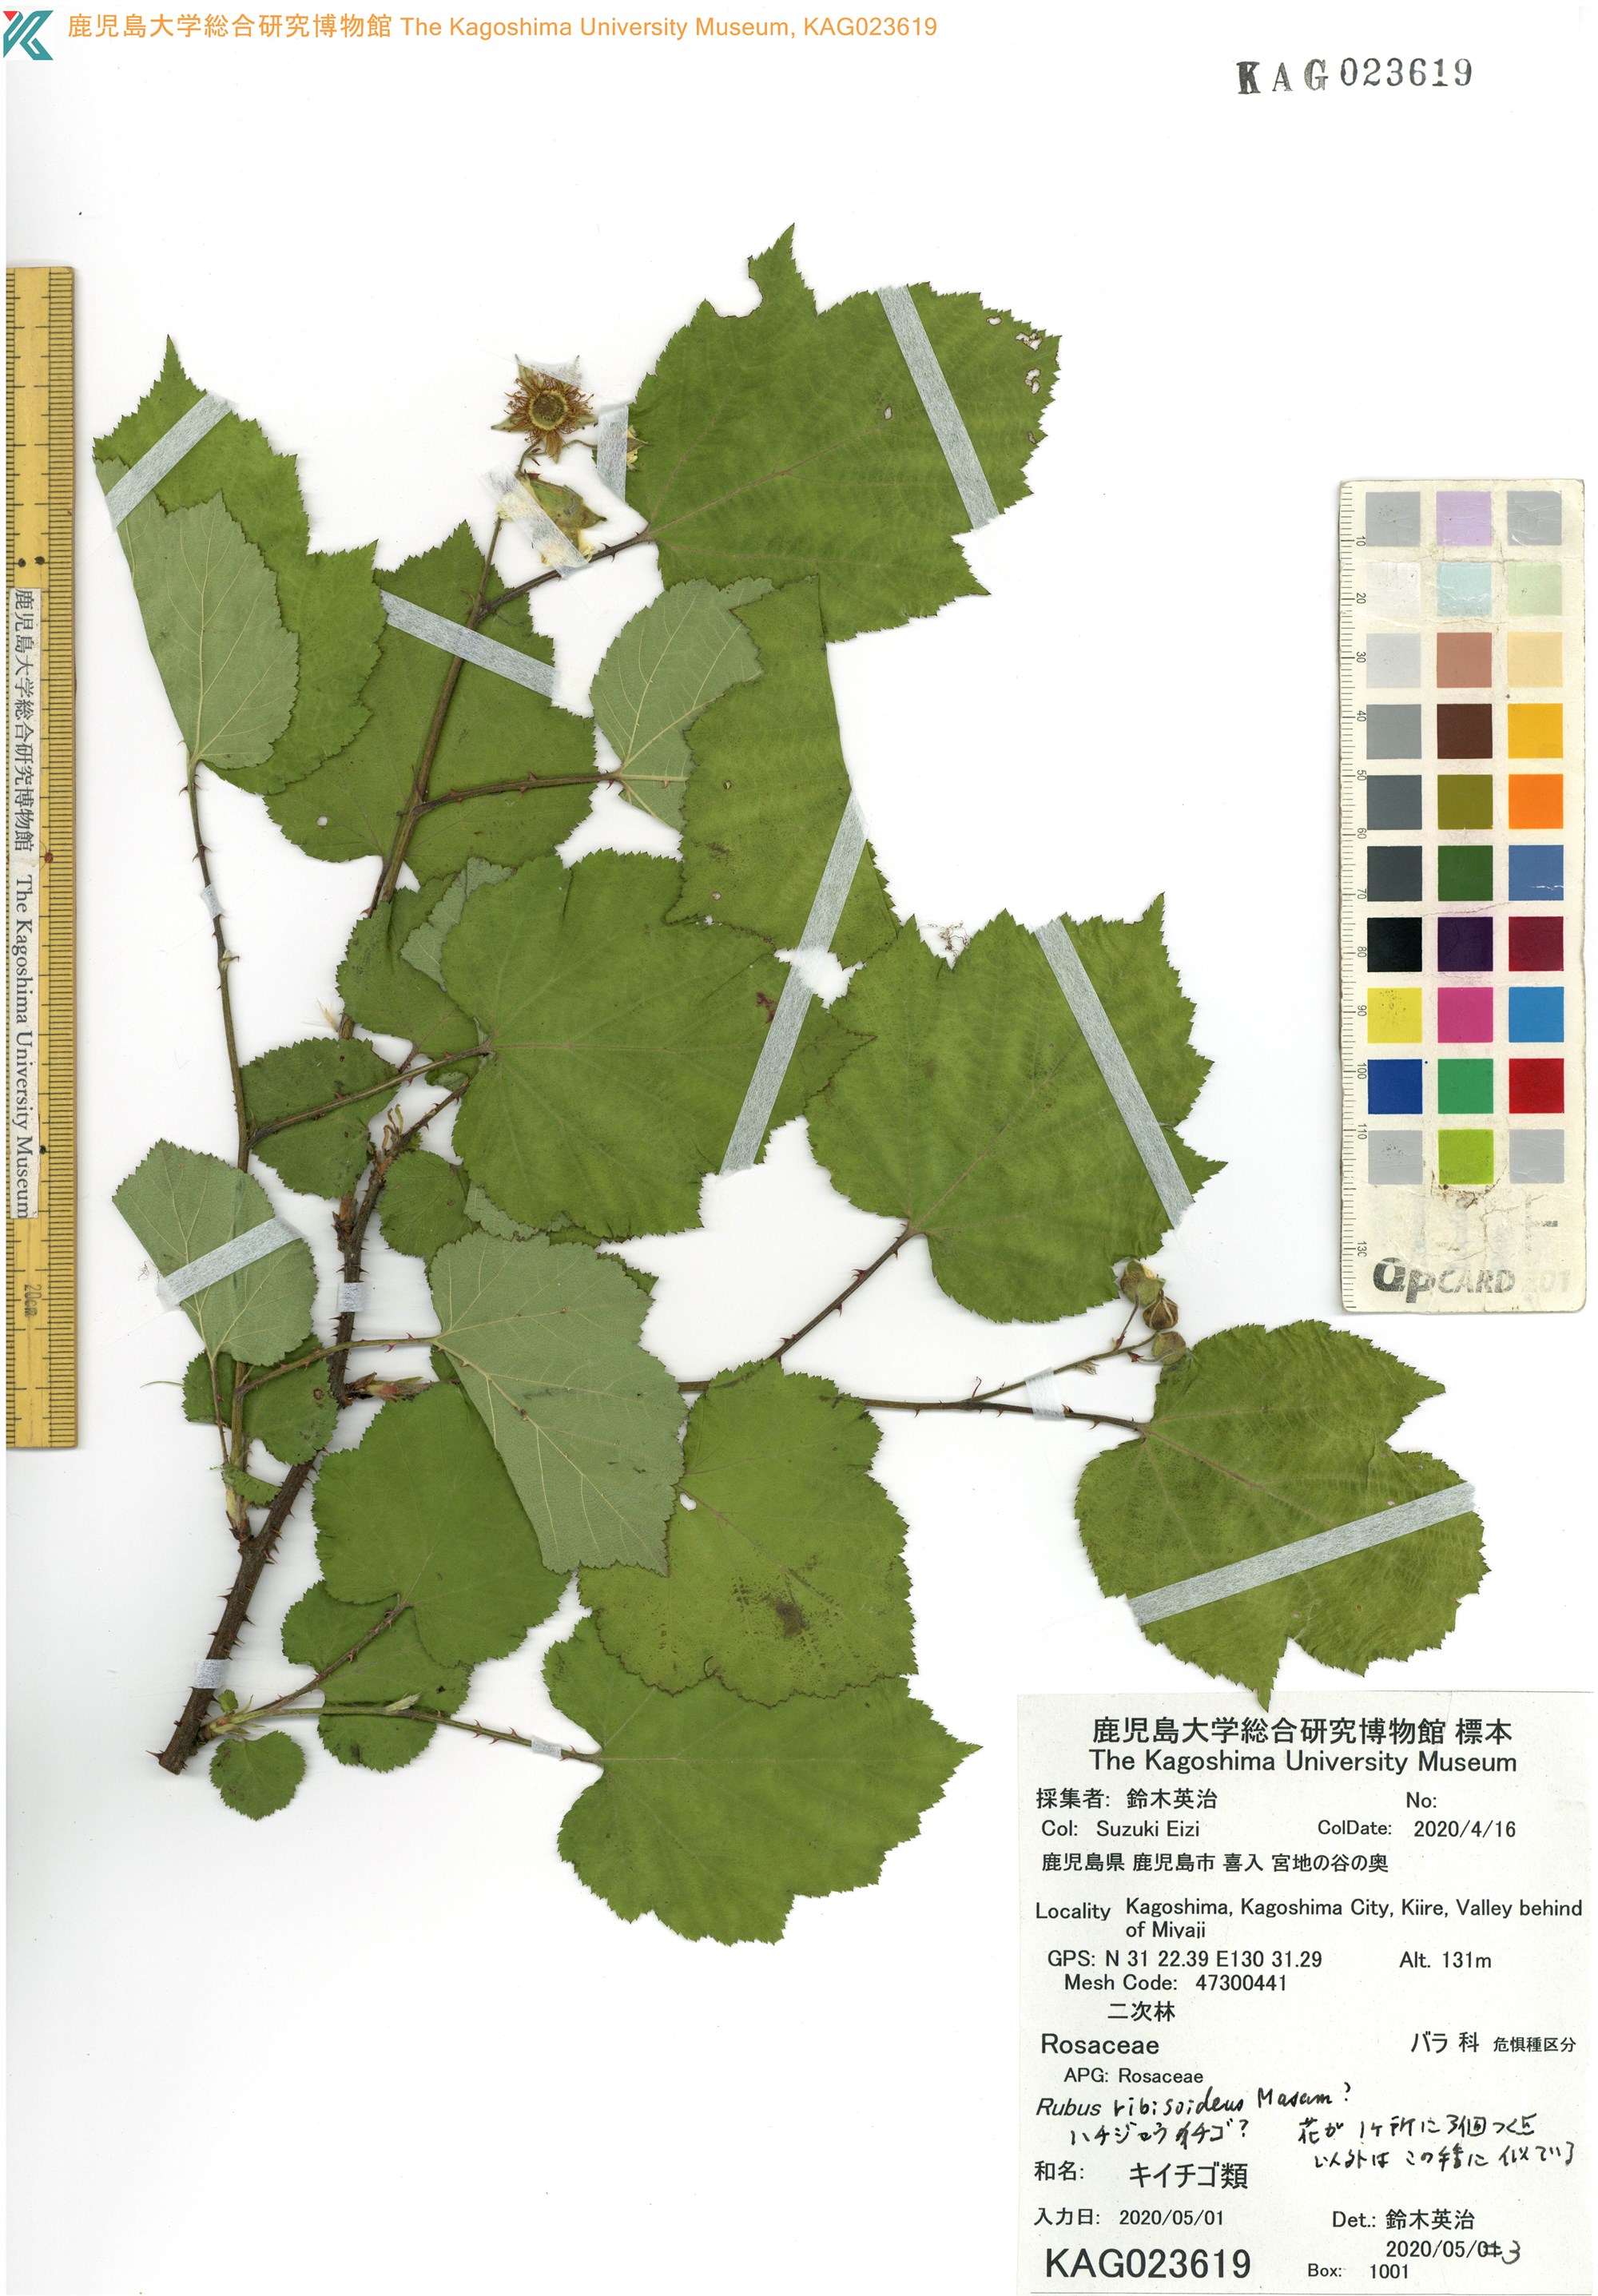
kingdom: Plantae
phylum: Tracheophyta
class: Magnoliopsida
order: Rosales
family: Rosaceae
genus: Rubus
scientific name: Rubus ribisoideus
